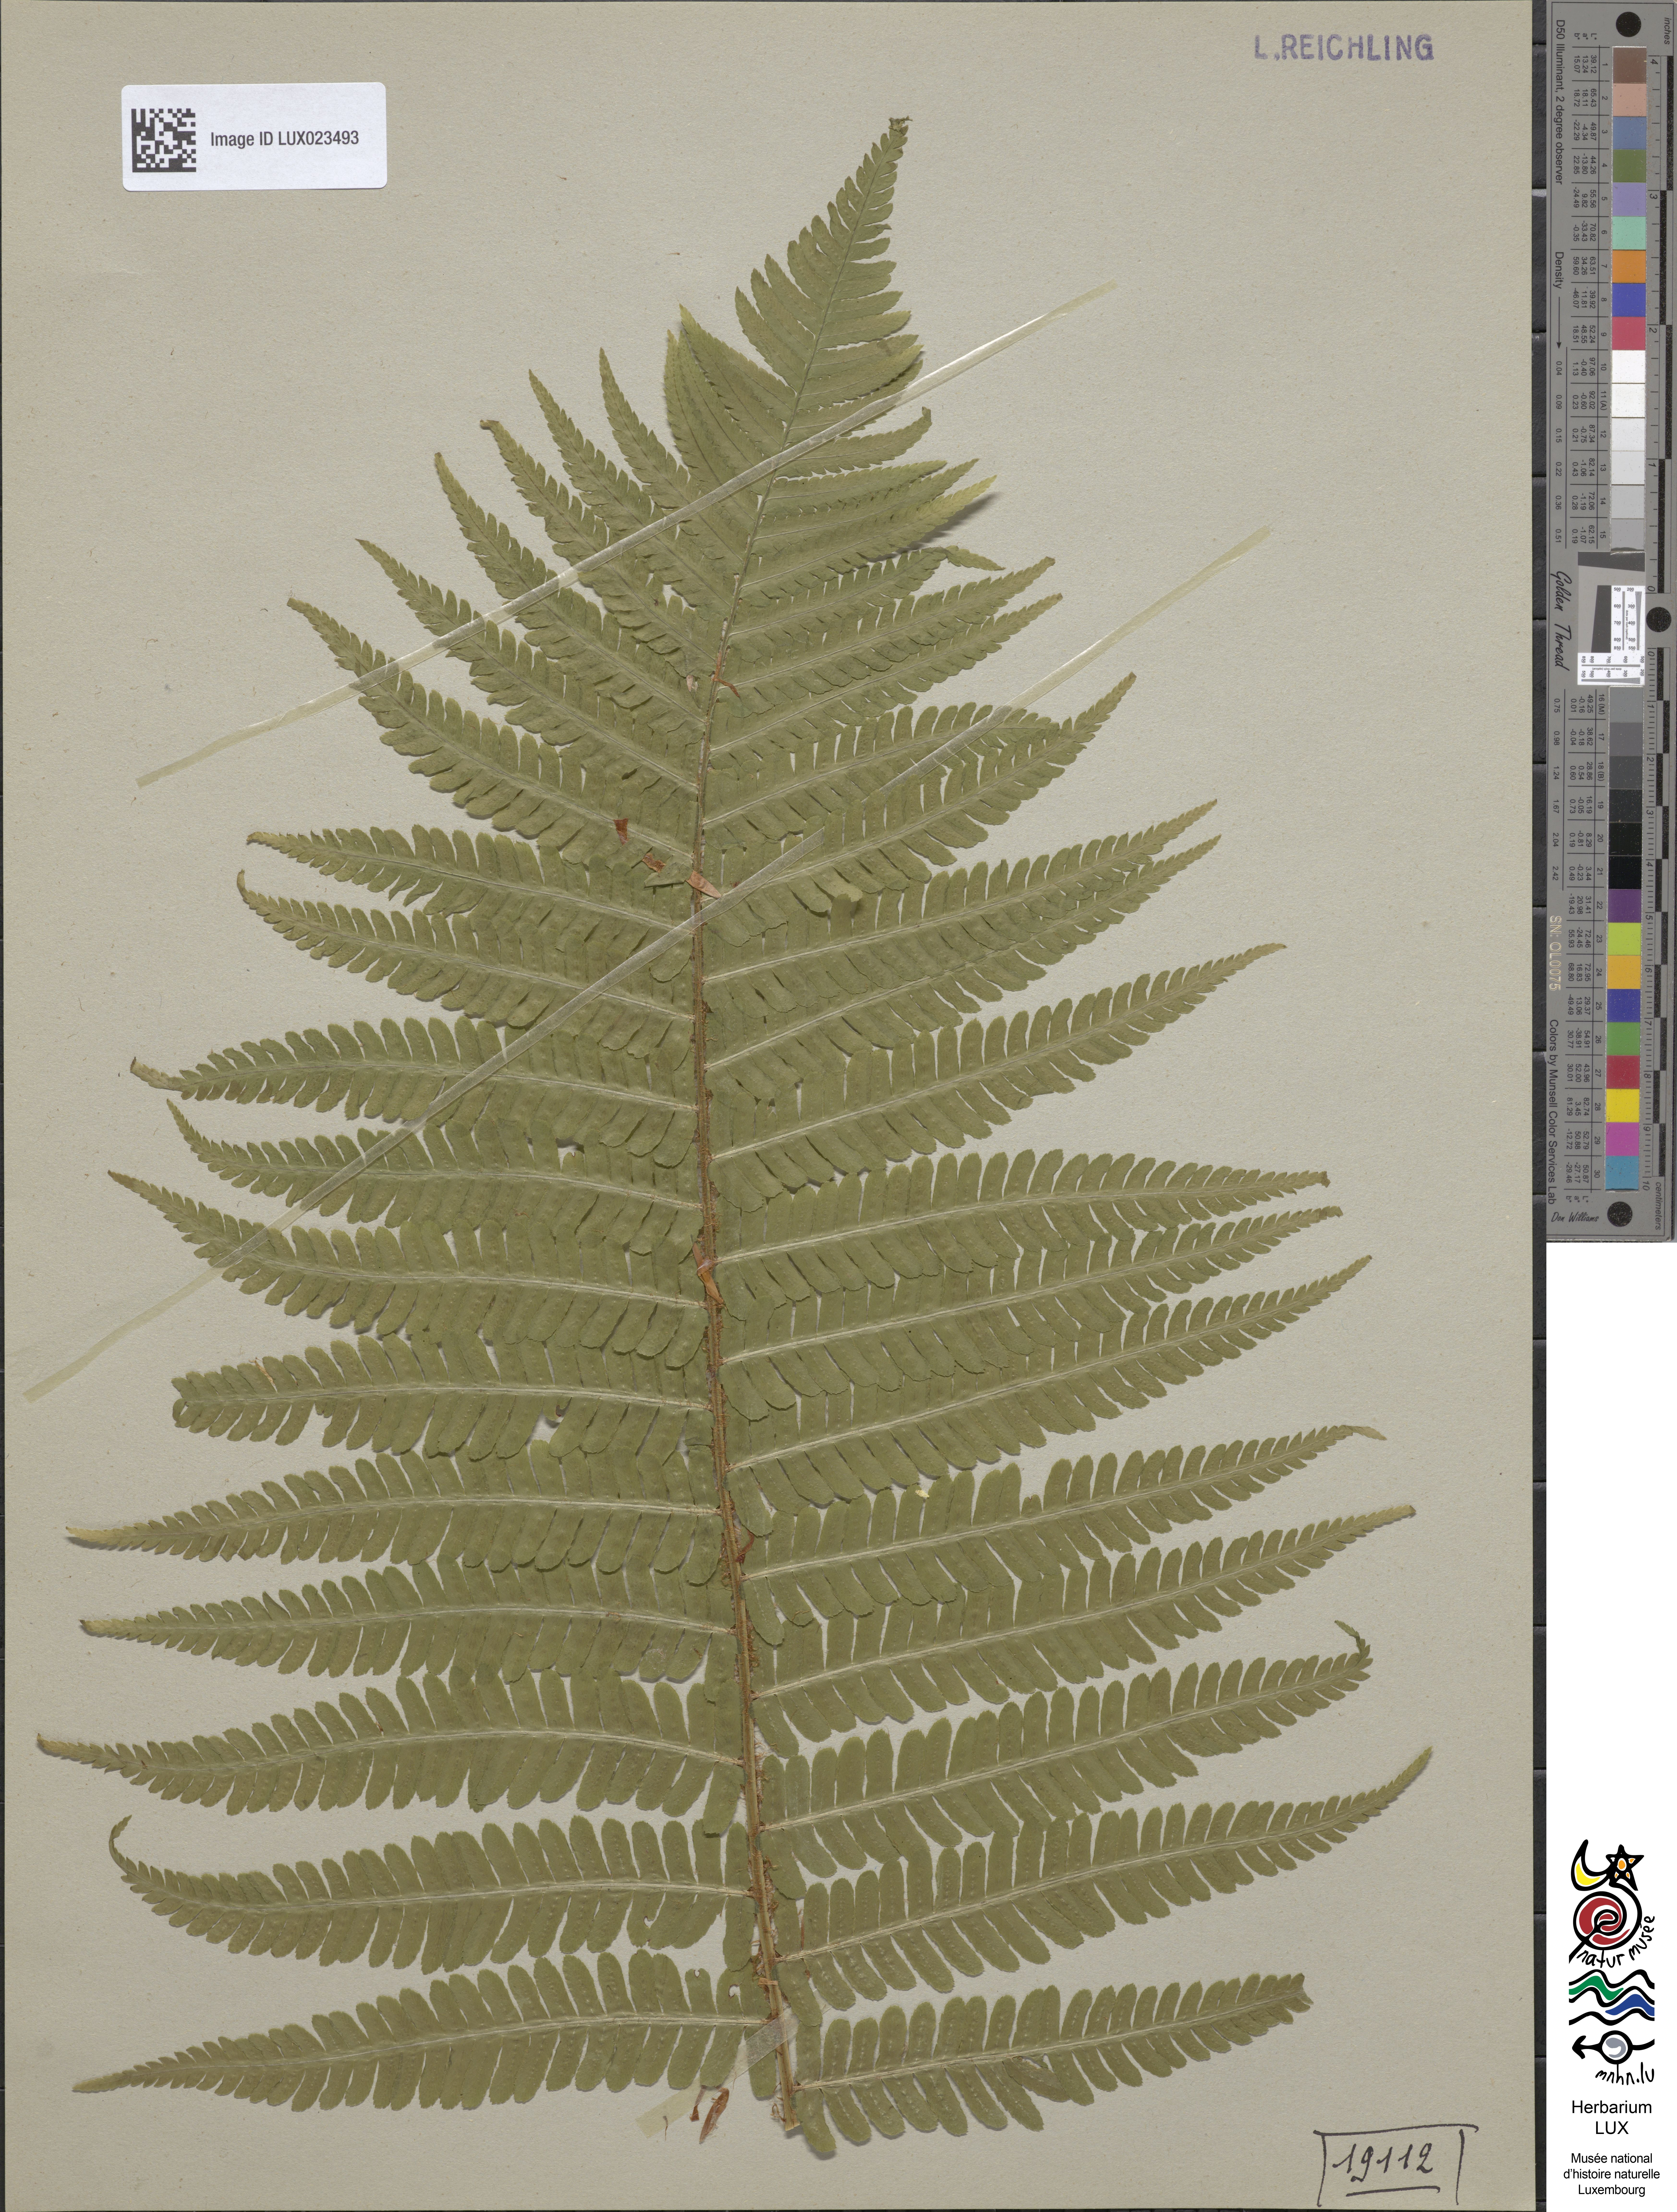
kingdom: Plantae
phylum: Tracheophyta
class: Polypodiopsida
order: Polypodiales
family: Dryopteridaceae
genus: Dryopteris
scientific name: Dryopteris borreri
